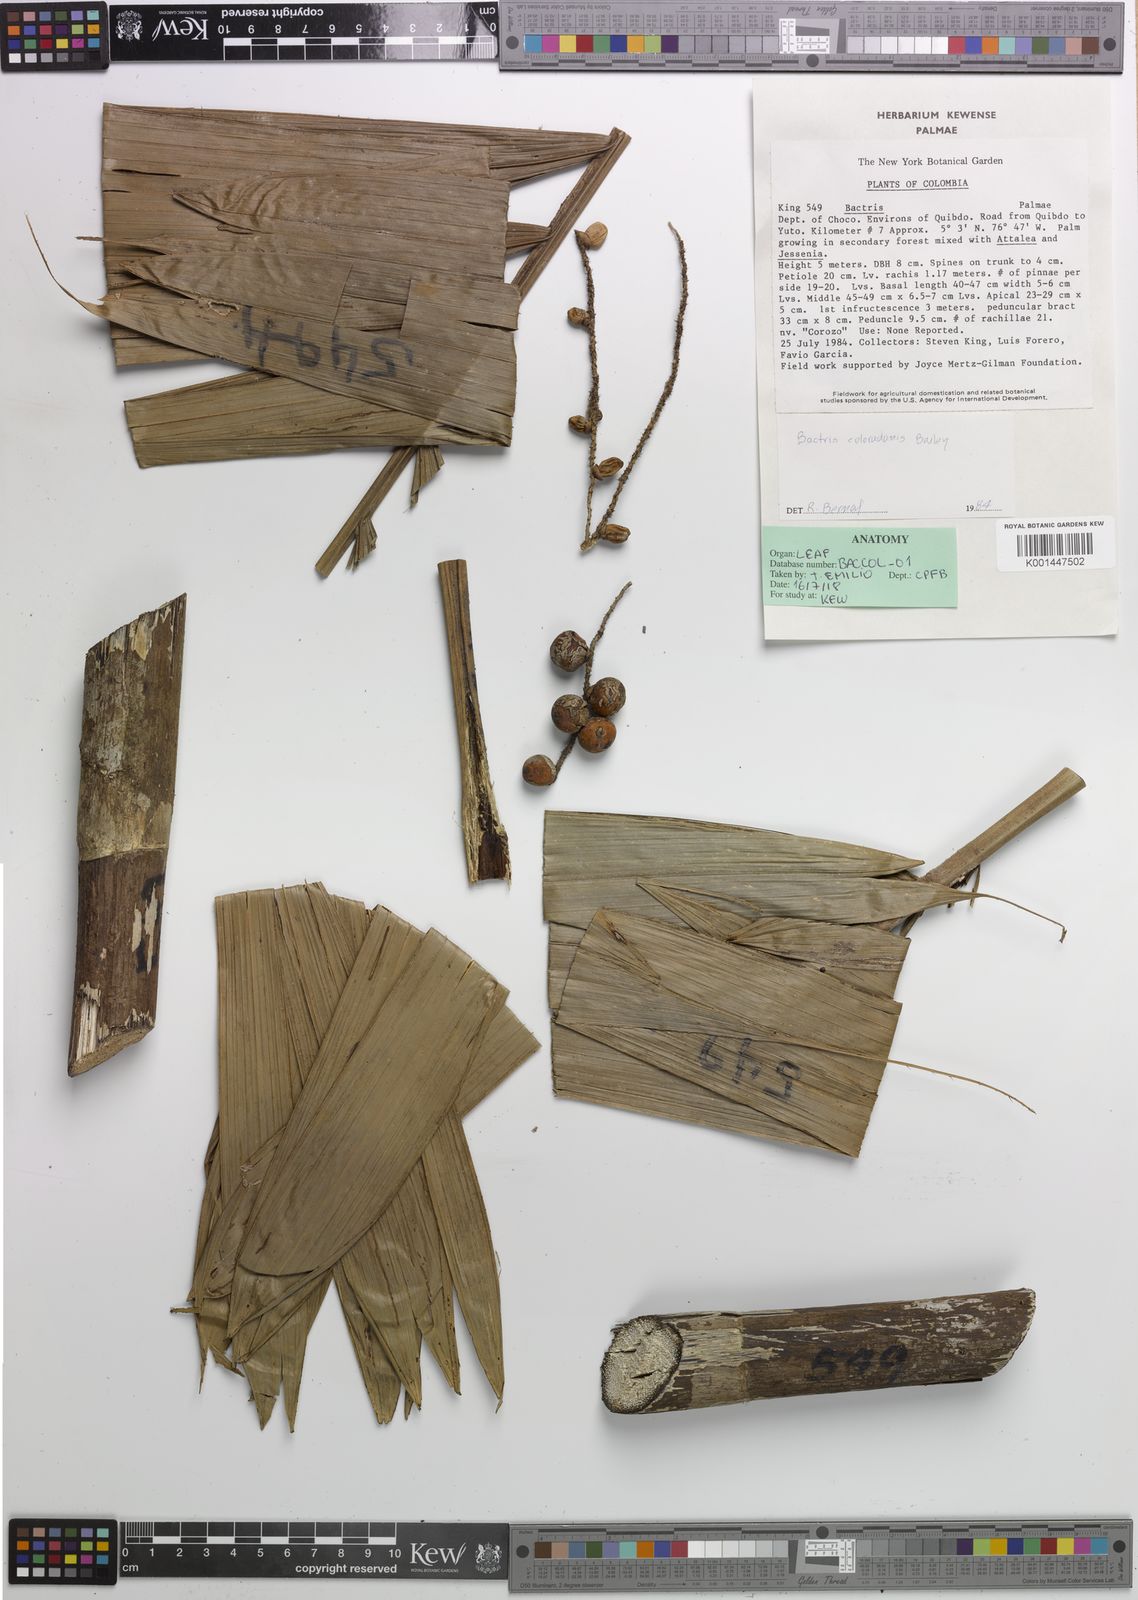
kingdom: Plantae
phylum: Tracheophyta
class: Liliopsida
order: Arecales
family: Arecaceae
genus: Bactris
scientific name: Bactris coloradonis
